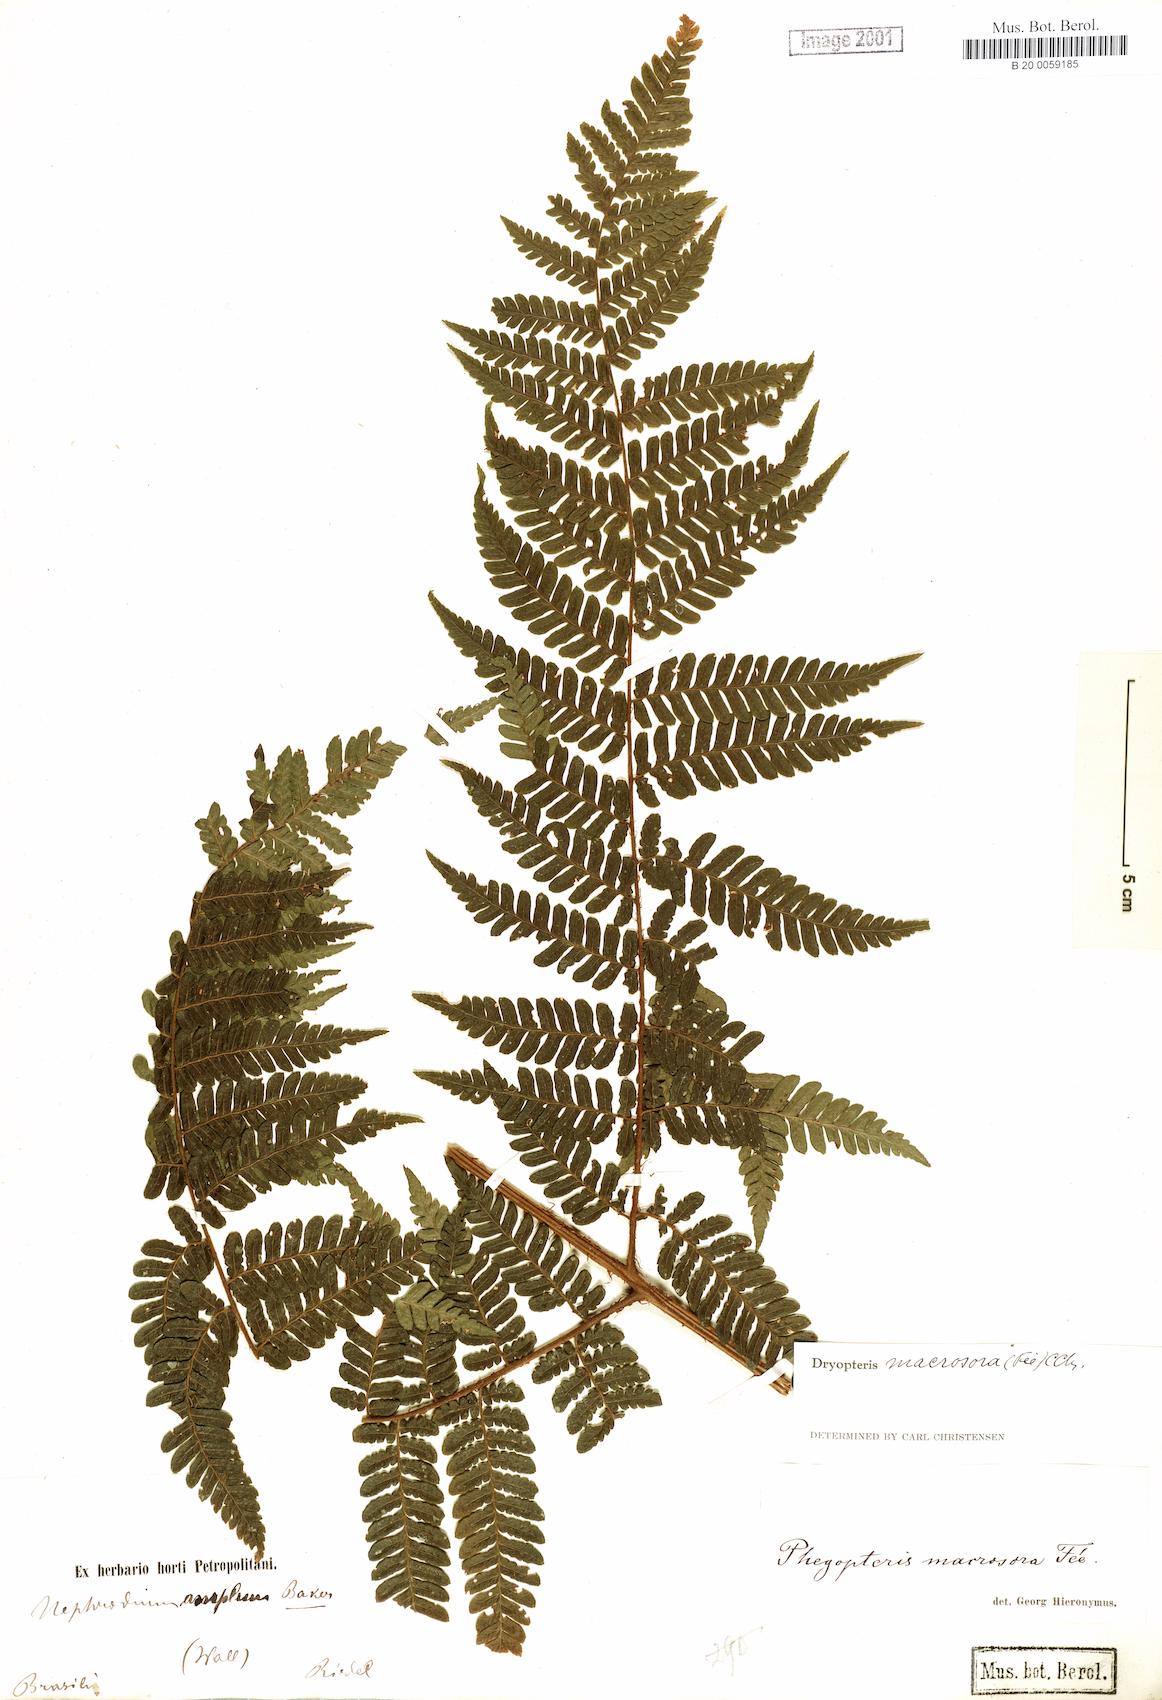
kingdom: Plantae
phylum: Tracheophyta
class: Polypodiopsida
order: Polypodiales
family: Dryopteridaceae
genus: Megalastrum
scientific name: Megalastrum inaequale
